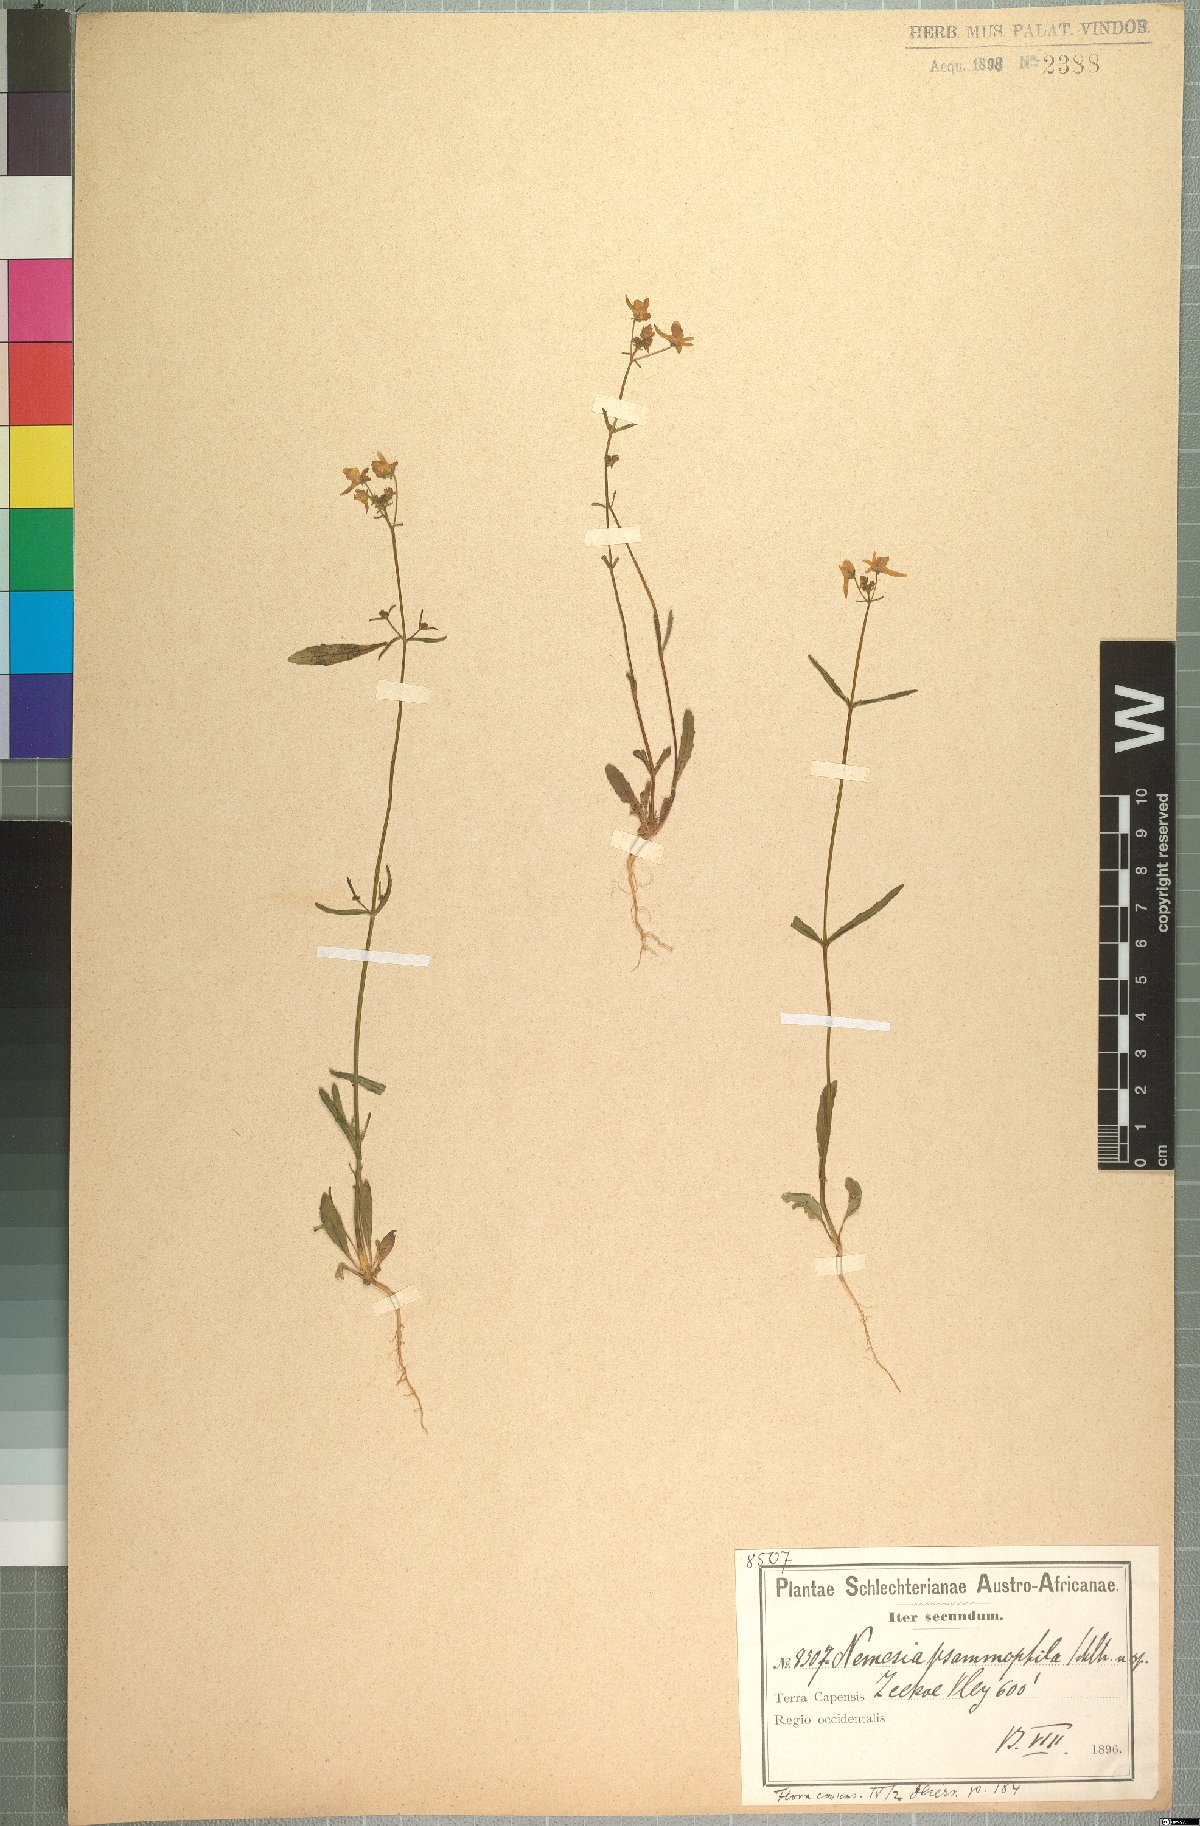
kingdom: Plantae
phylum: Tracheophyta
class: Magnoliopsida
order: Lamiales
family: Scrophulariaceae
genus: Nemesia
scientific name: Nemesia psammophila
